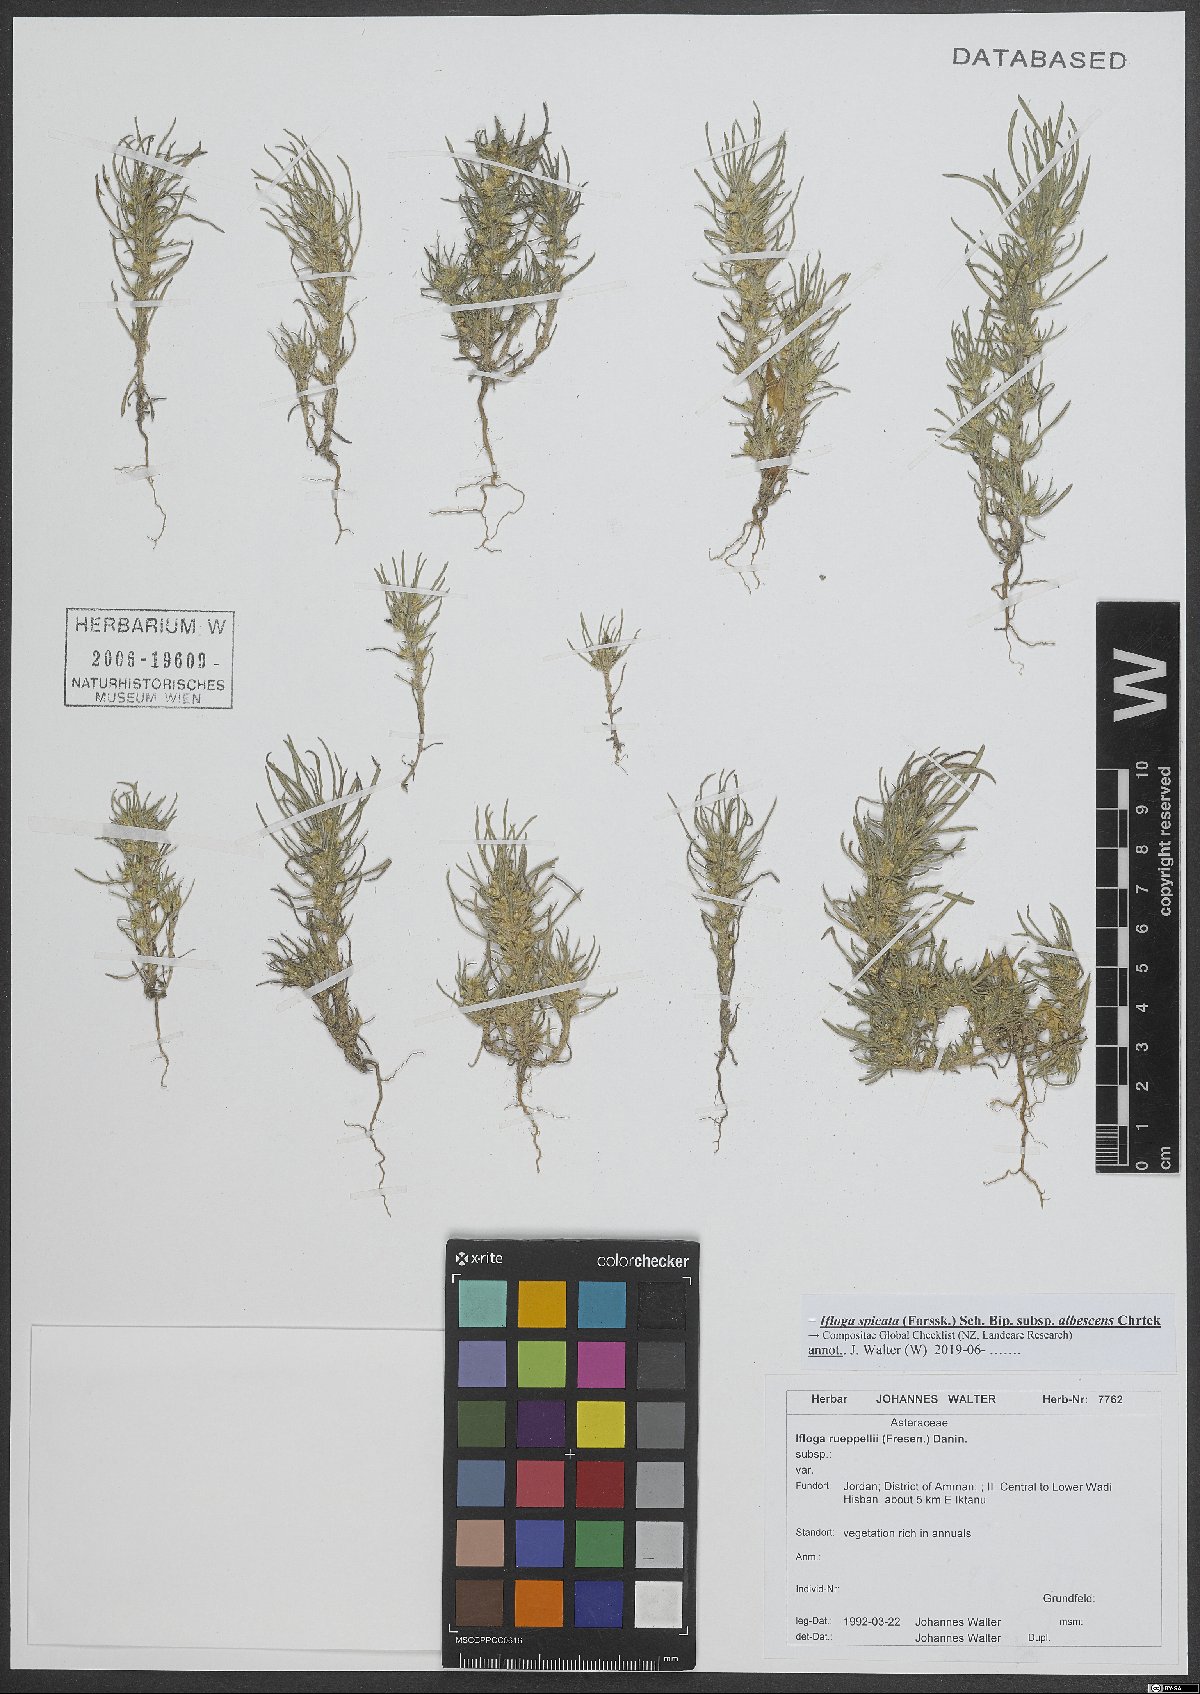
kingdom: Plantae
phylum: Tracheophyta
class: Magnoliopsida
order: Asterales
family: Asteraceae
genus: Ifloga
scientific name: Ifloga spicata
